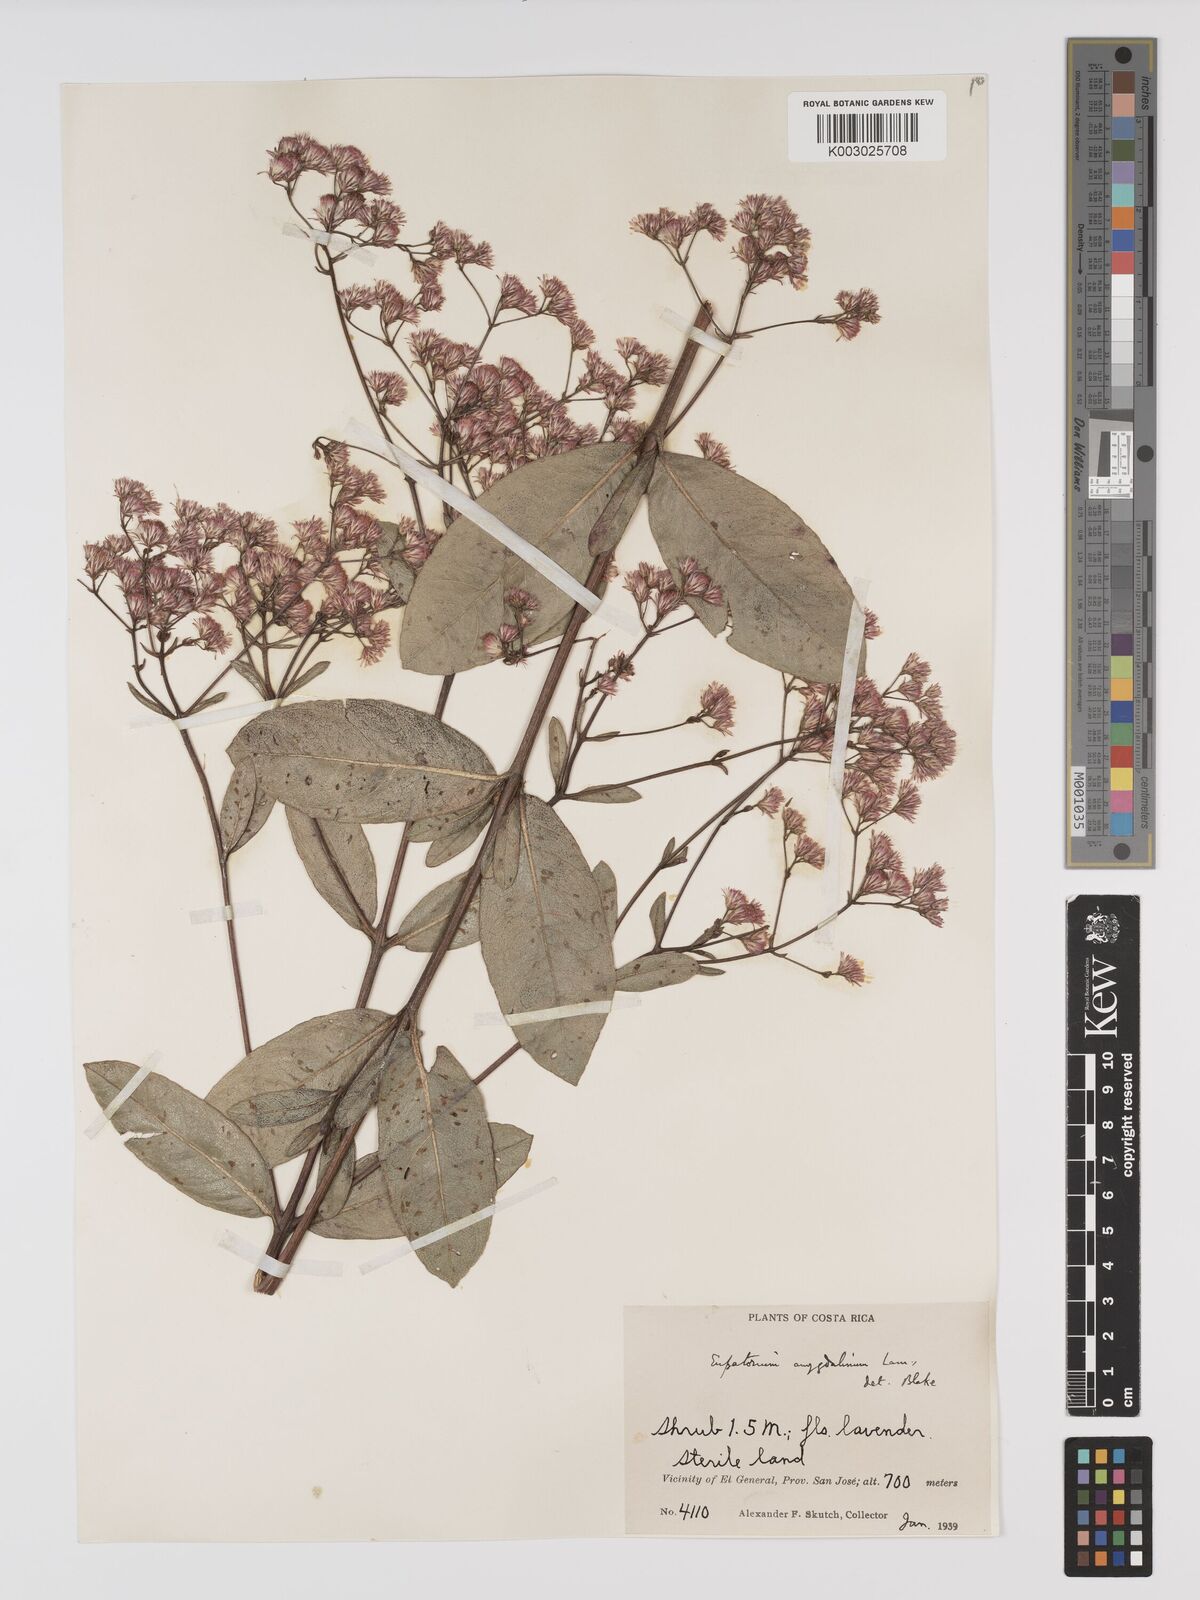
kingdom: Plantae
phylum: Tracheophyta
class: Magnoliopsida
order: Asterales
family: Asteraceae
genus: Ayapana
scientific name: Ayapana amygdalina
